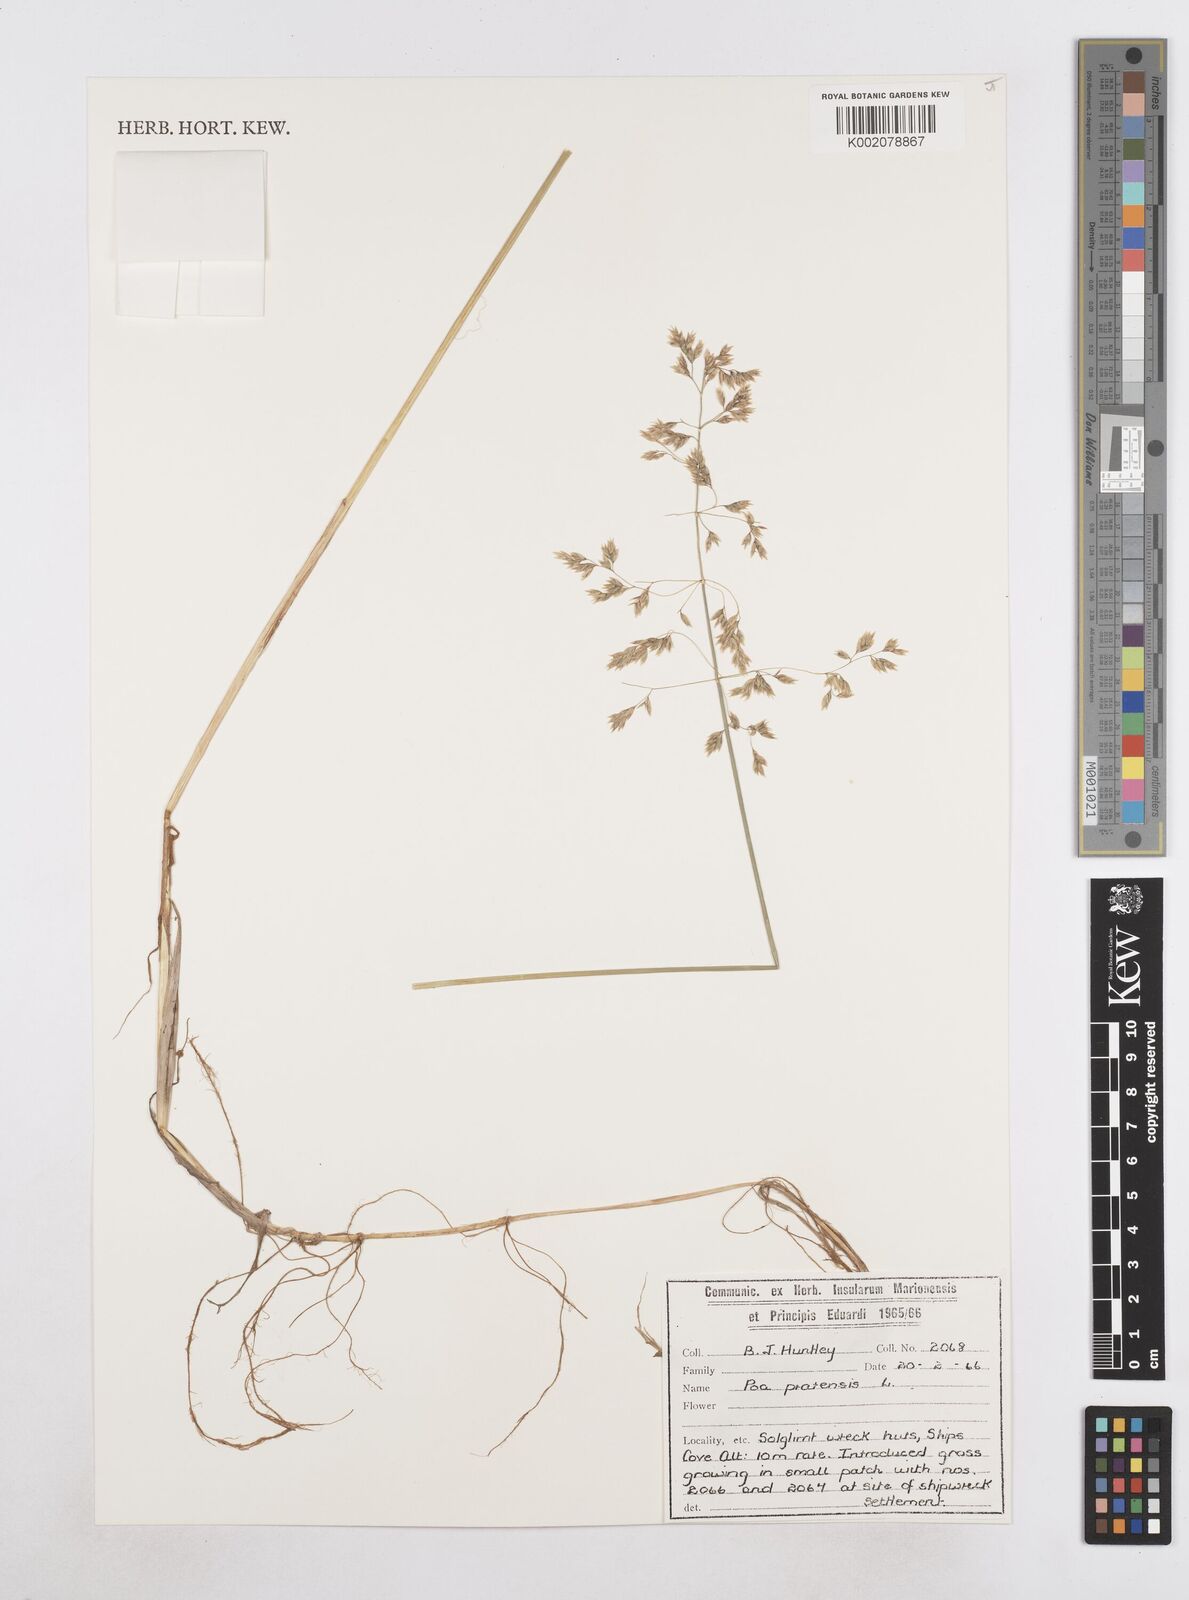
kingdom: Plantae
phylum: Tracheophyta
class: Liliopsida
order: Poales
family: Poaceae
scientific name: Poaceae
